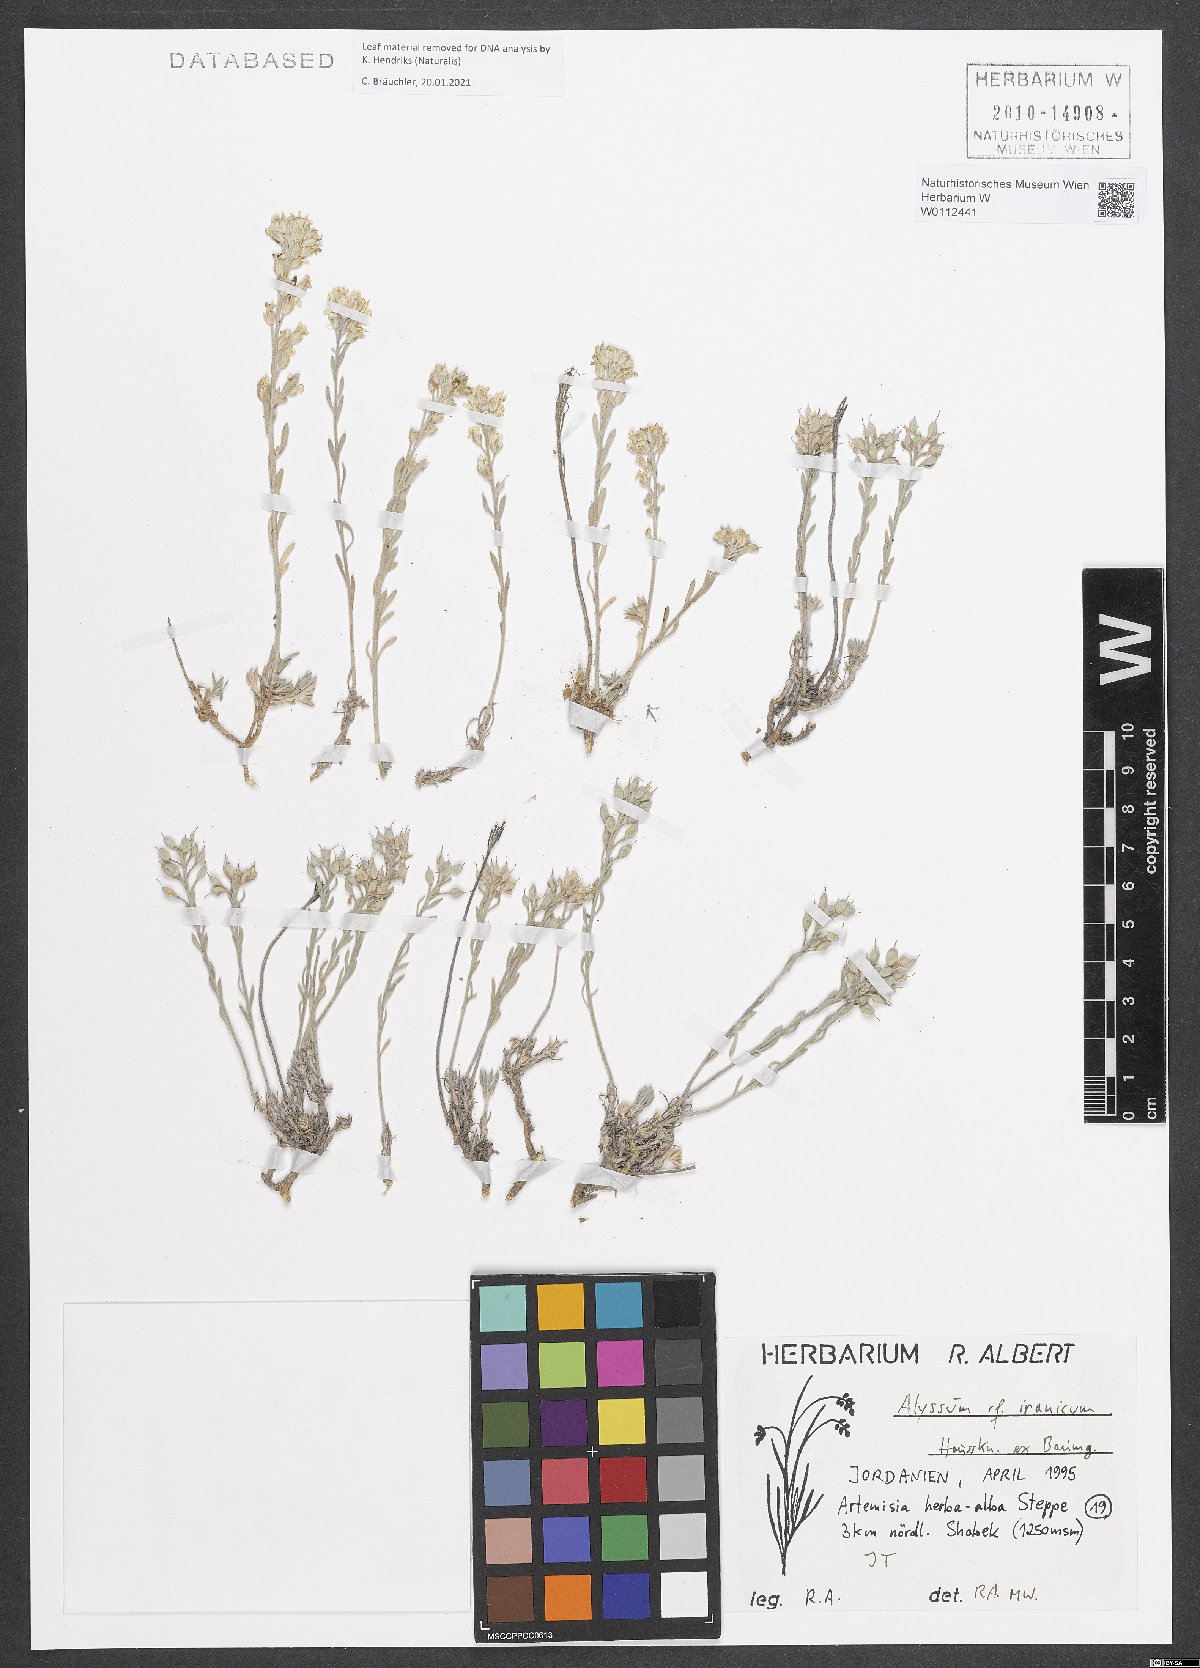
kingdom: Plantae
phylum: Tracheophyta
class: Magnoliopsida
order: Brassicales
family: Brassicaceae
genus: Alyssum
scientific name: Alyssum iranicum
